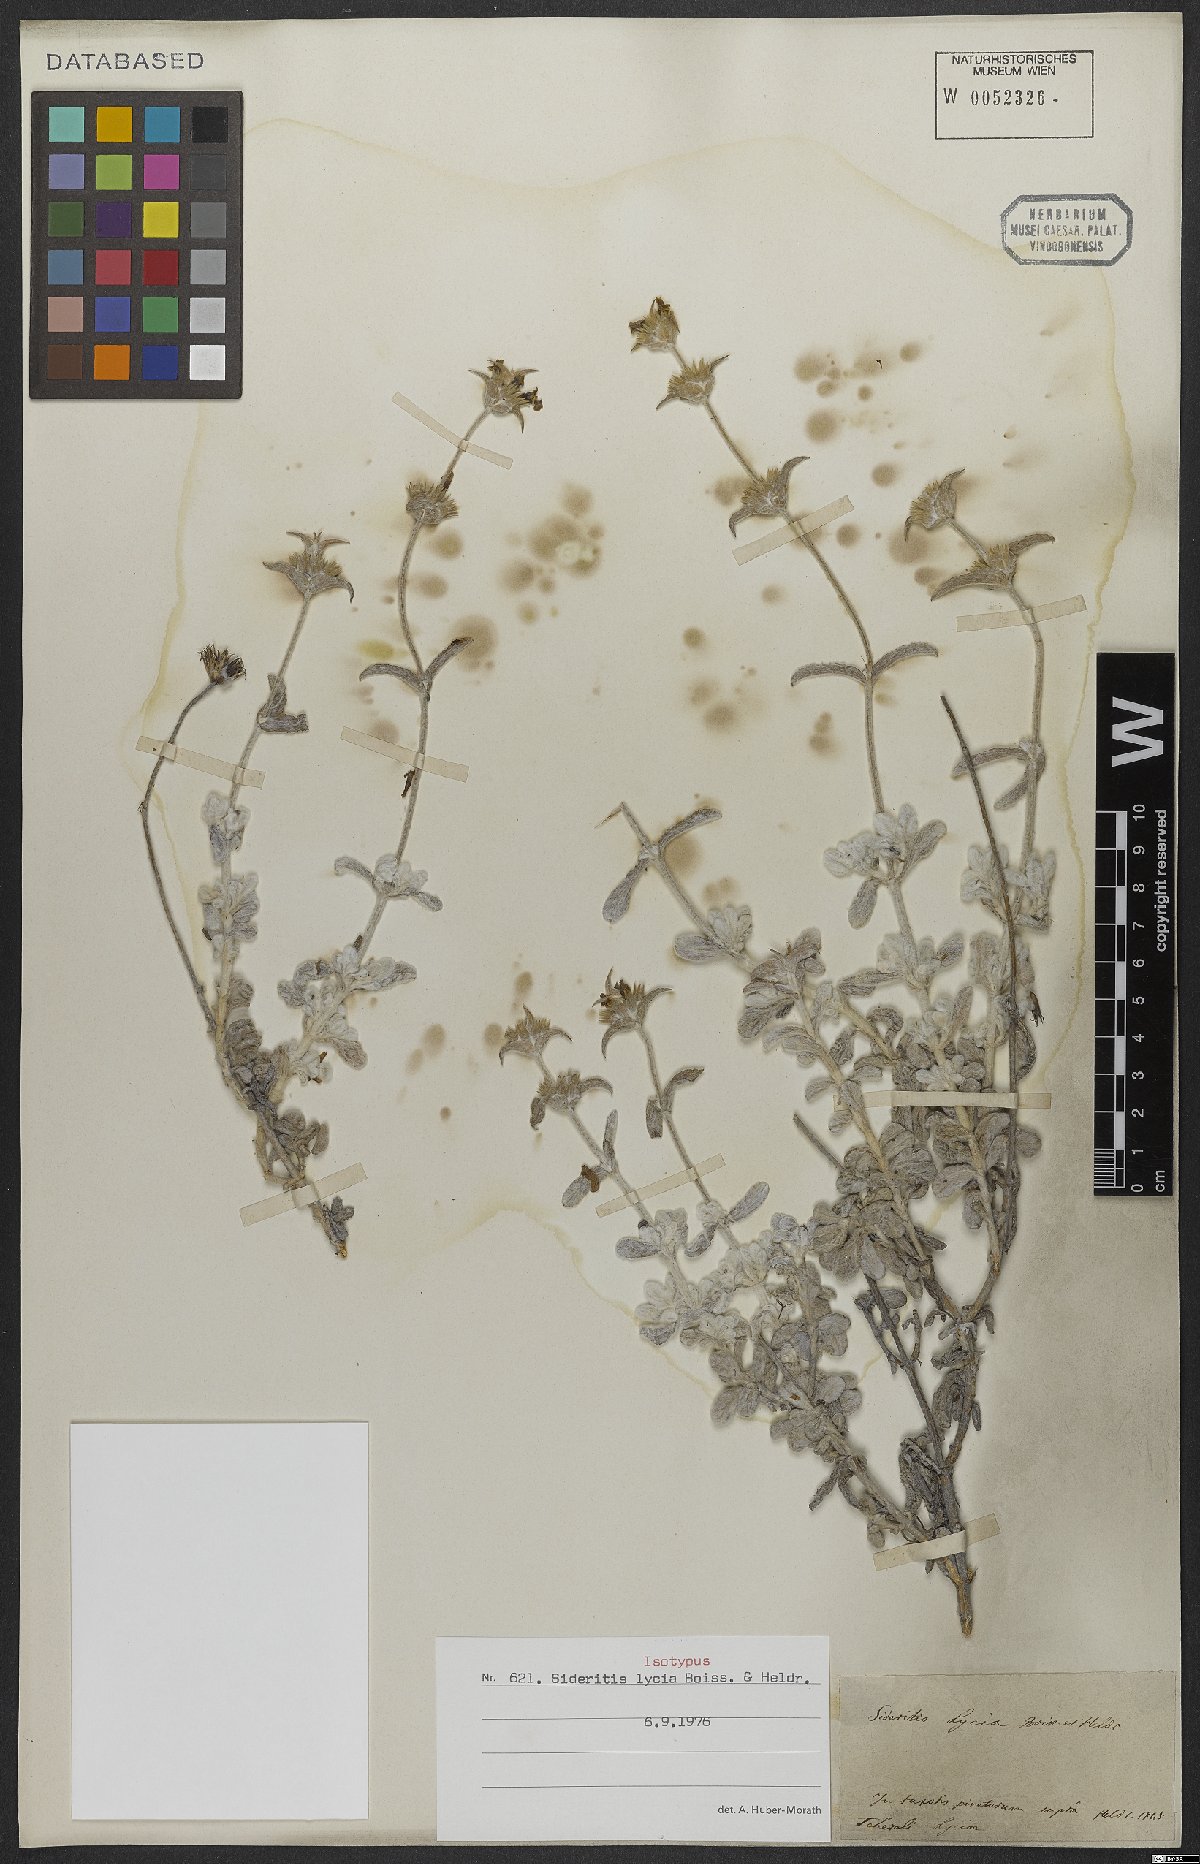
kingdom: Plantae
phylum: Tracheophyta
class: Magnoliopsida
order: Lamiales
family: Lamiaceae
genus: Sideritis
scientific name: Sideritis lycia
